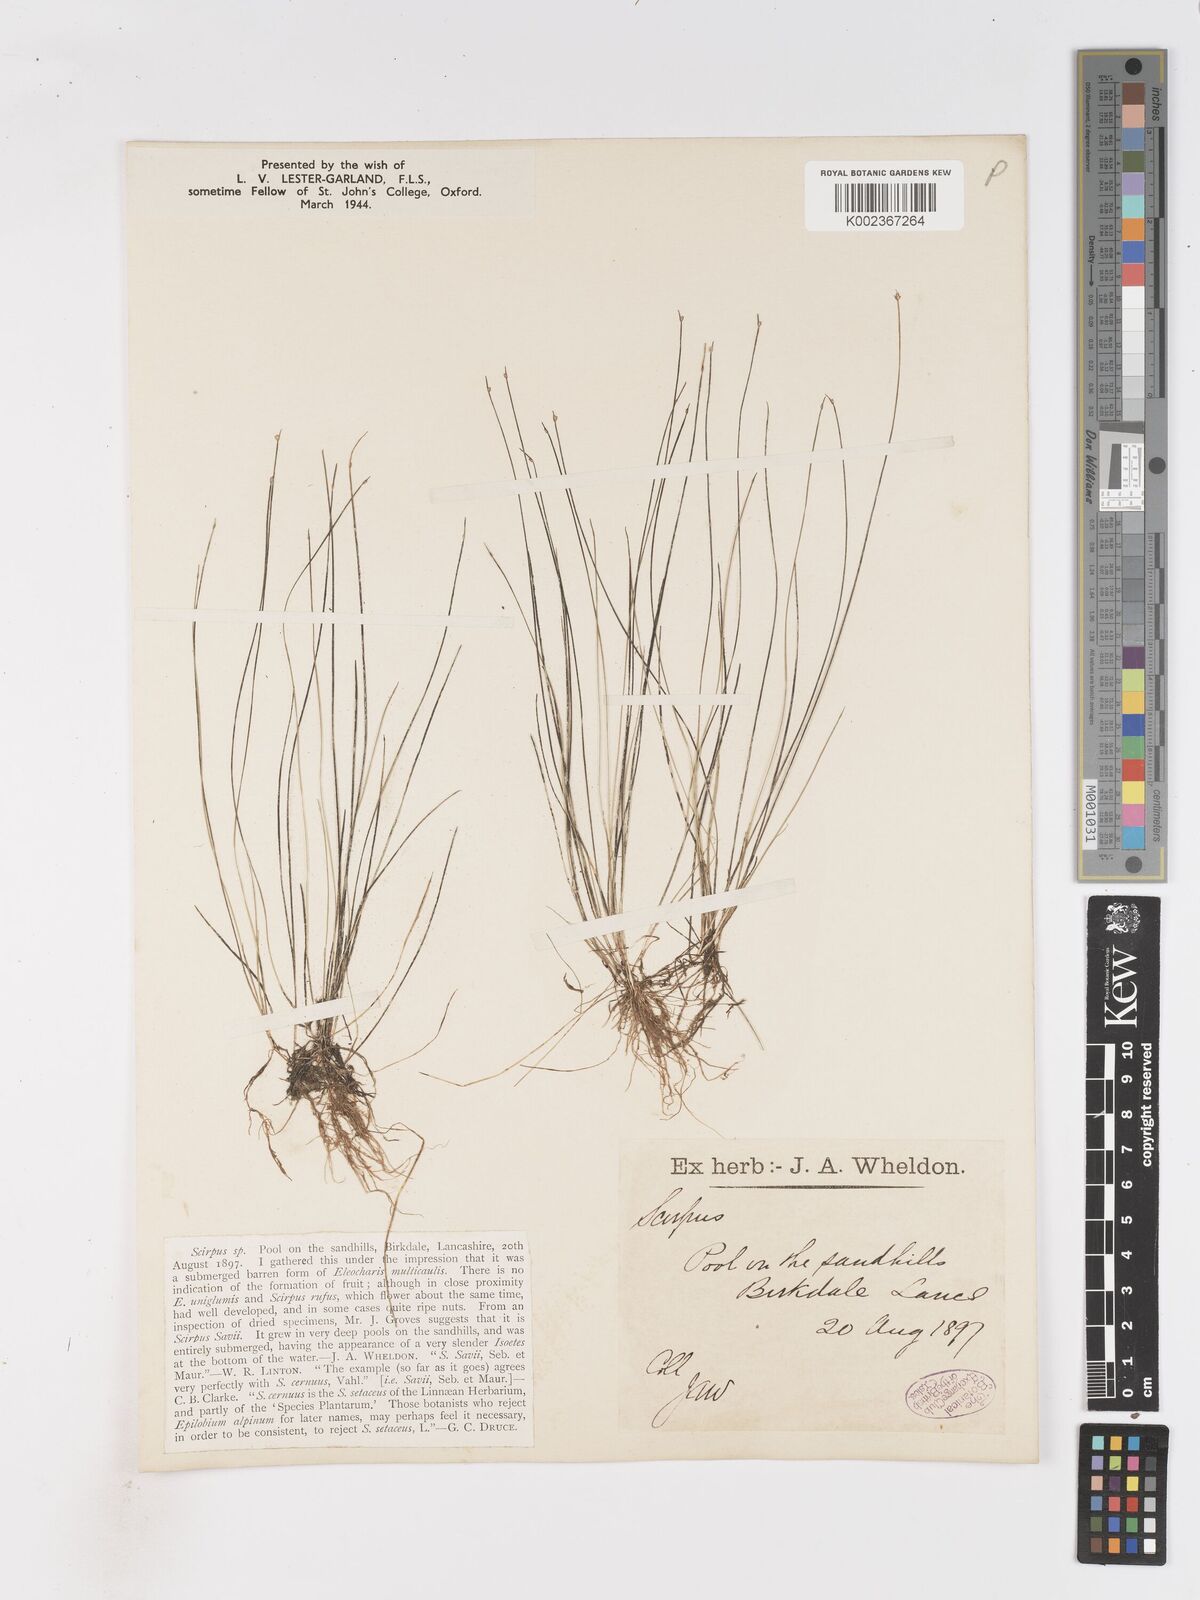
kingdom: Plantae
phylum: Tracheophyta
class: Liliopsida
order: Poales
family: Cyperaceae
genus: Isolepis
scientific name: Isolepis cernua
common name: Slender club-rush
